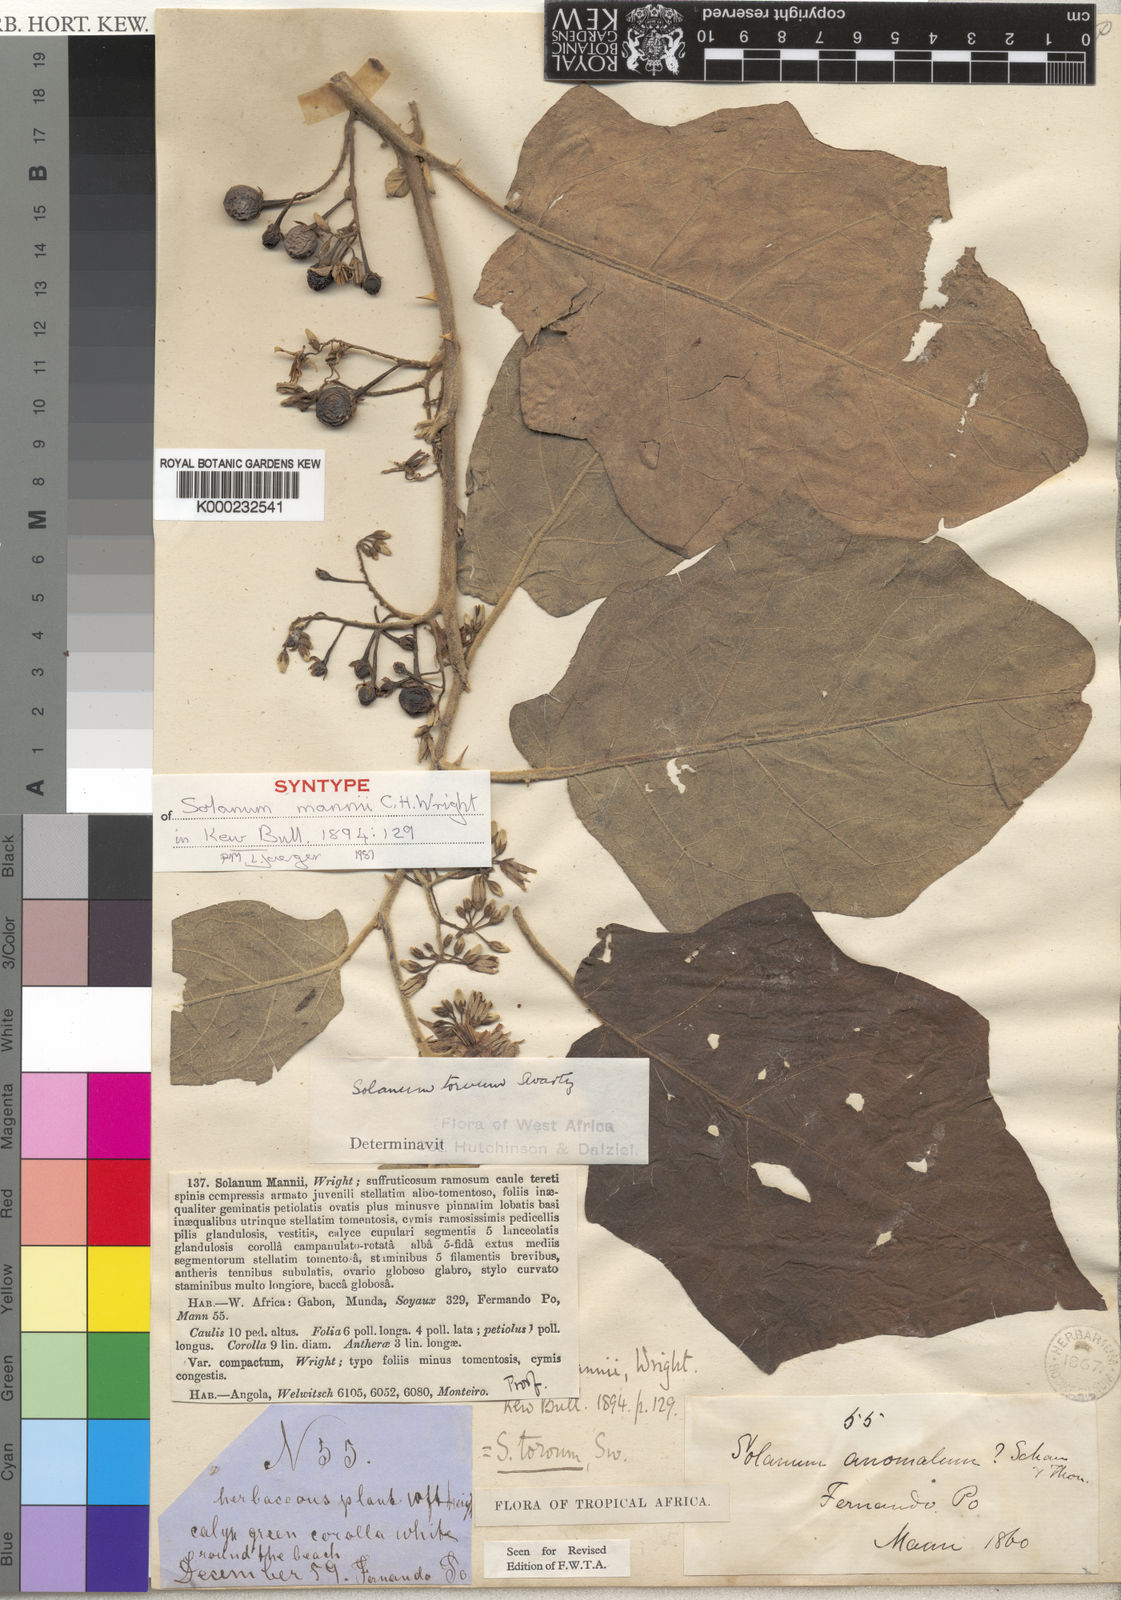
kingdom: Plantae
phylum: Tracheophyta
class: Magnoliopsida
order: Solanales
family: Solanaceae
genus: Solanum
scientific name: Solanum torvum
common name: Turkey berry
